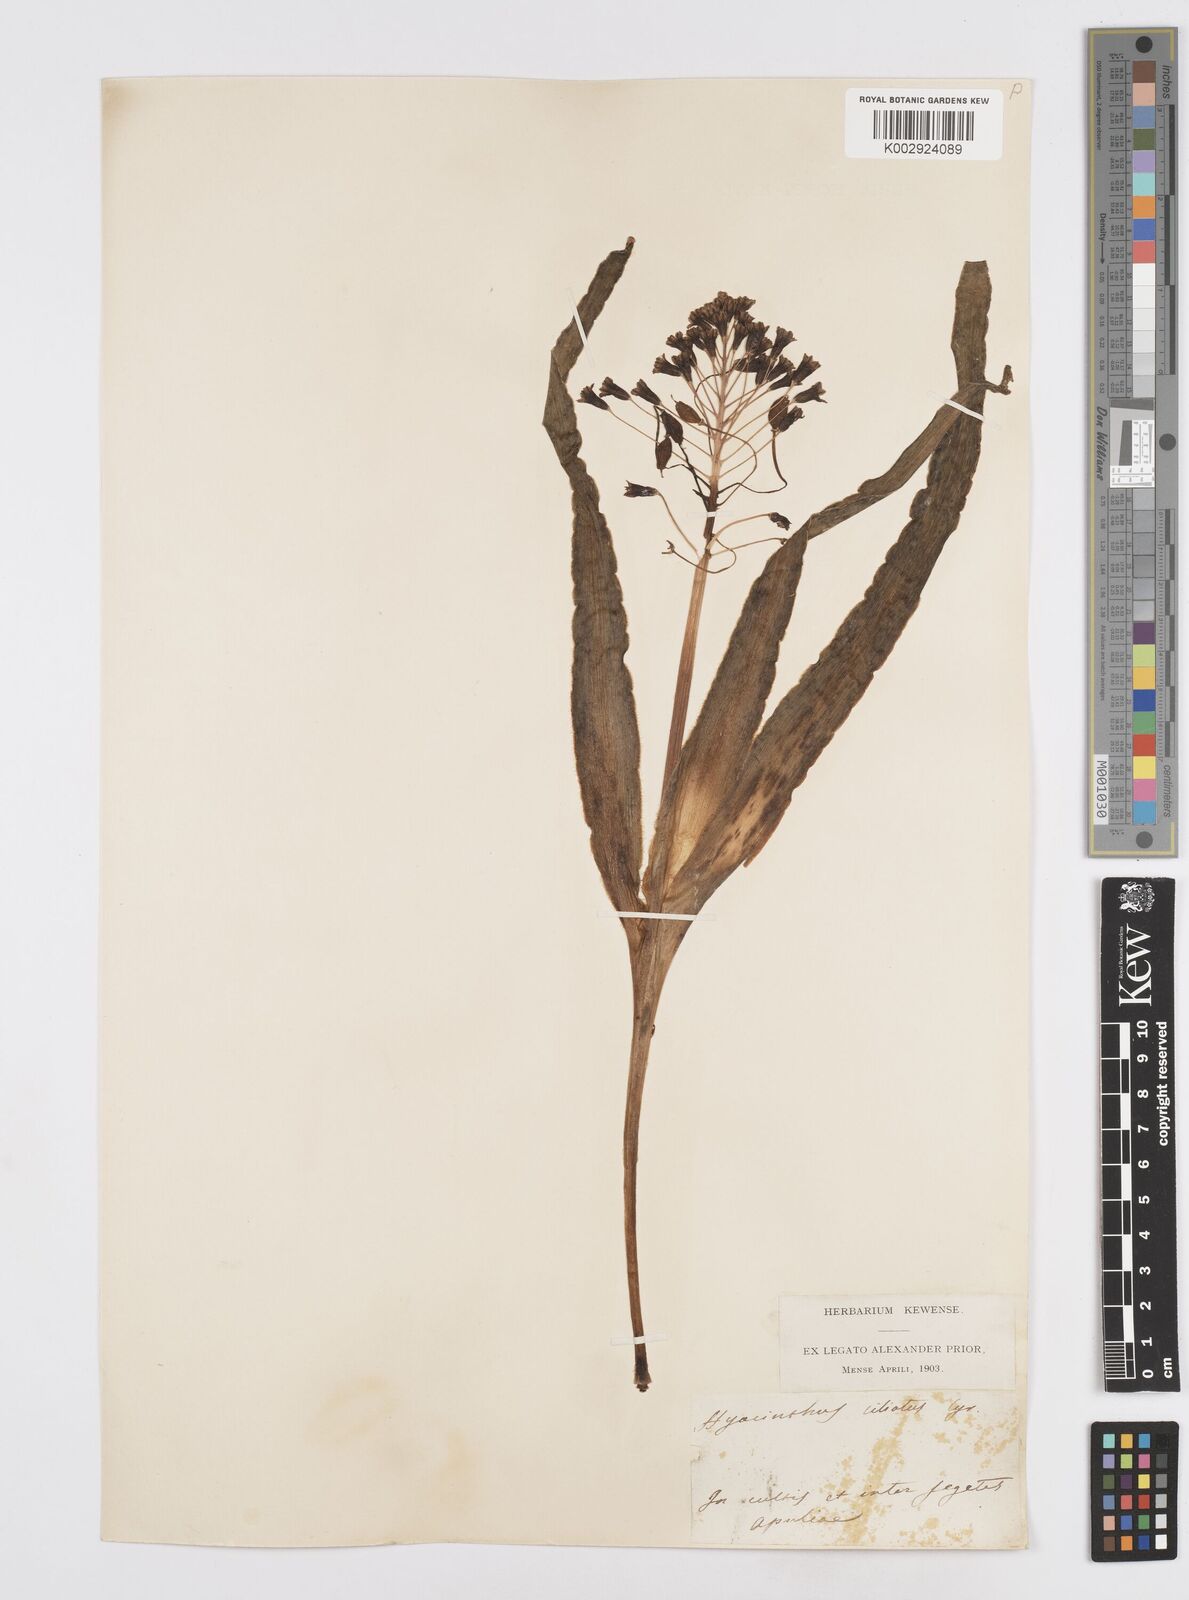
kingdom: Plantae
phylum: Tracheophyta
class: Liliopsida
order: Asparagales
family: Asparagaceae
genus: Bellevalia
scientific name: Bellevalia ciliata
